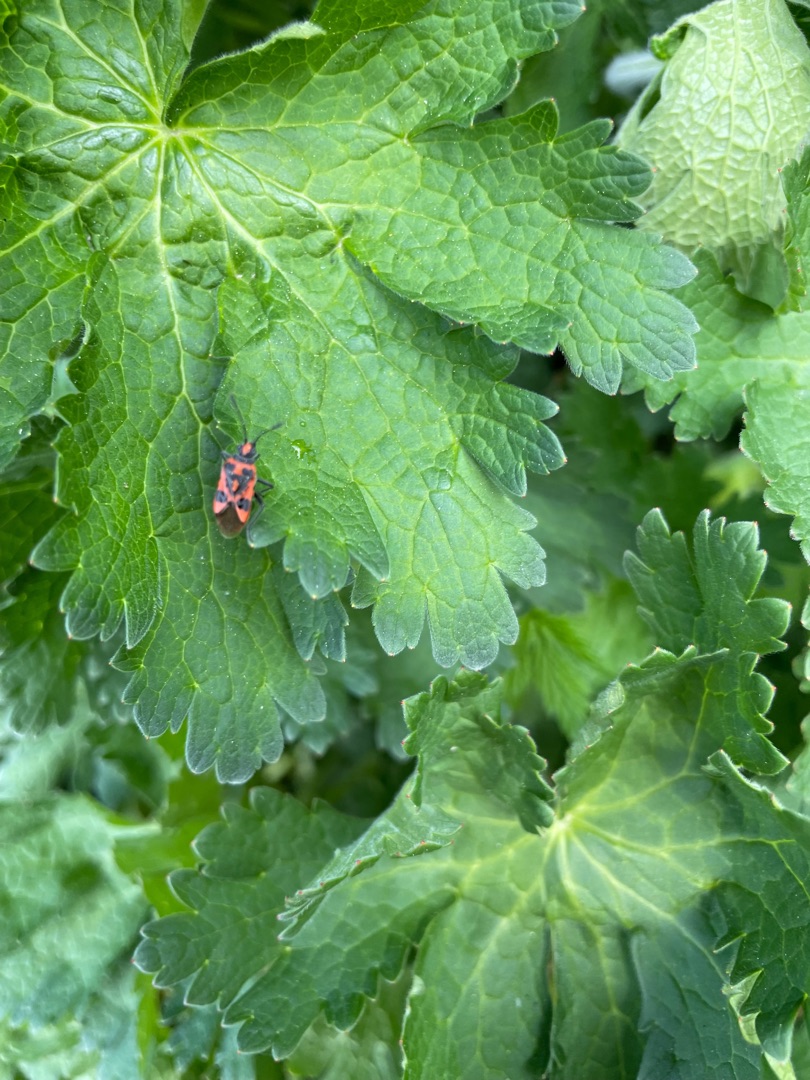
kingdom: Animalia
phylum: Arthropoda
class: Insecta
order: Hemiptera
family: Rhopalidae
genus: Corizus
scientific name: Corizus hyoscyami
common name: Rød kanttæge
